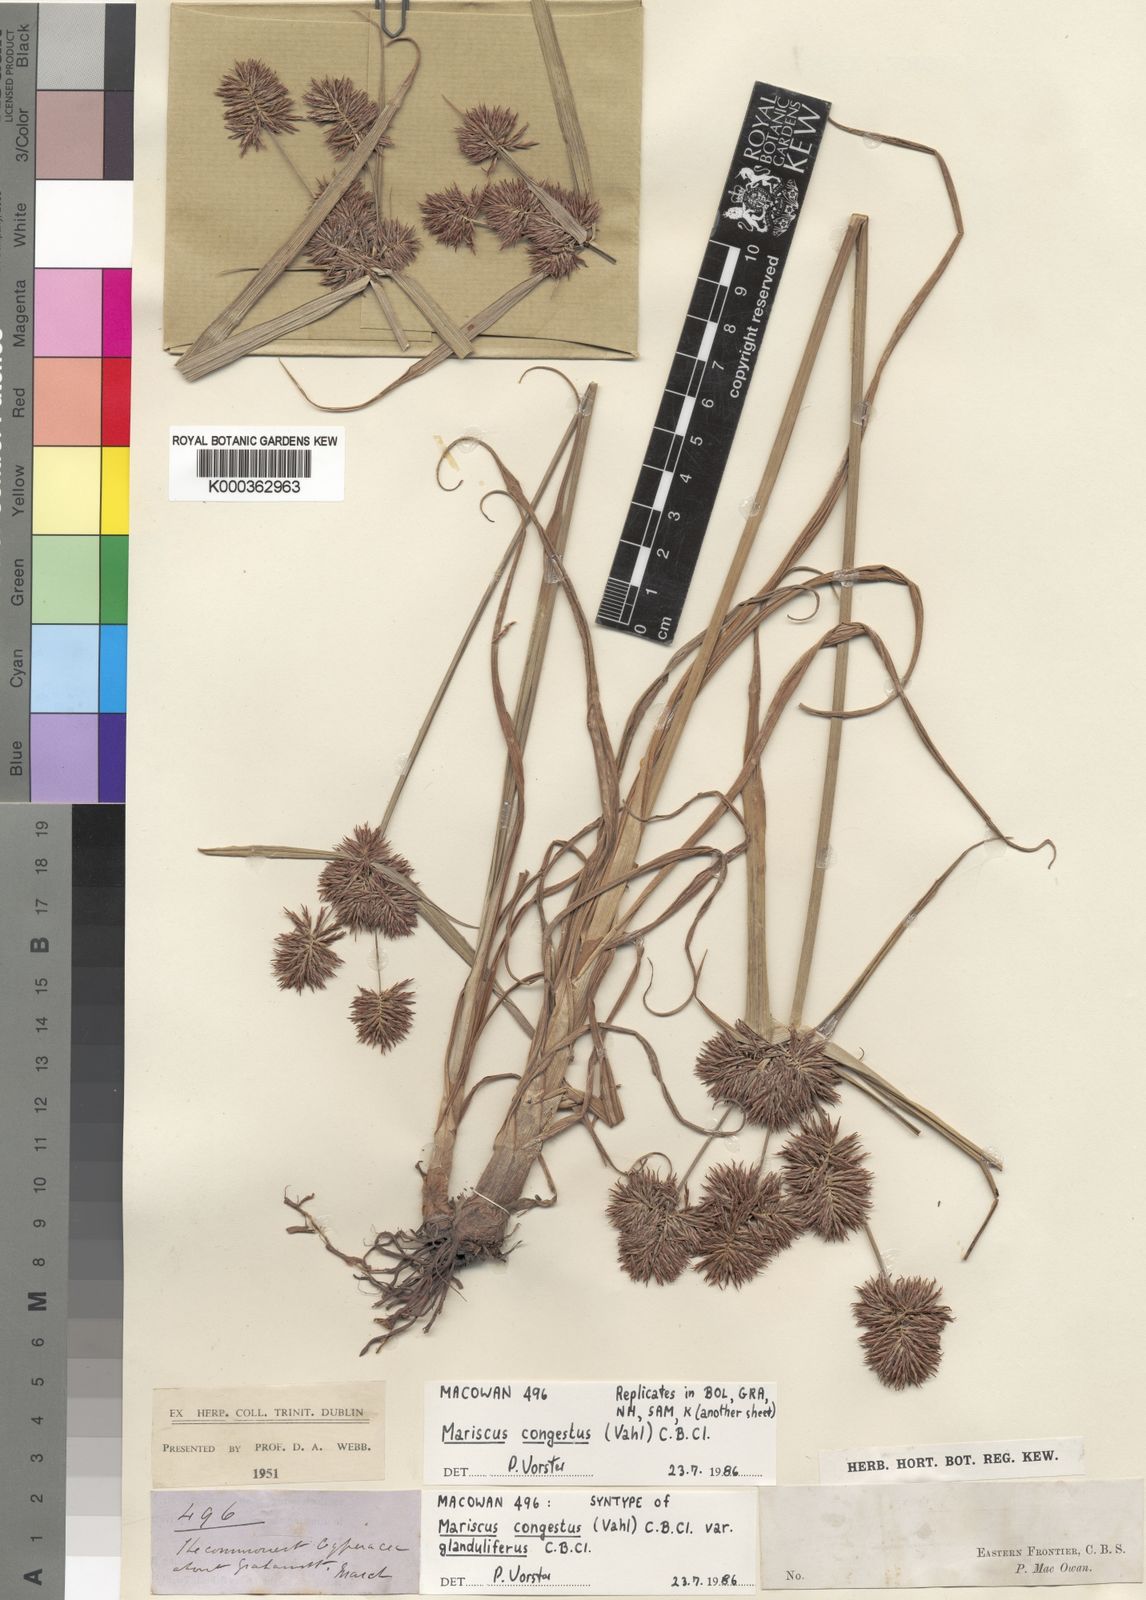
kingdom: Plantae
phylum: Tracheophyta
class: Liliopsida
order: Poales
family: Cyperaceae
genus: Cyperus
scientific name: Cyperus congestus
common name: Dense flat sedge
